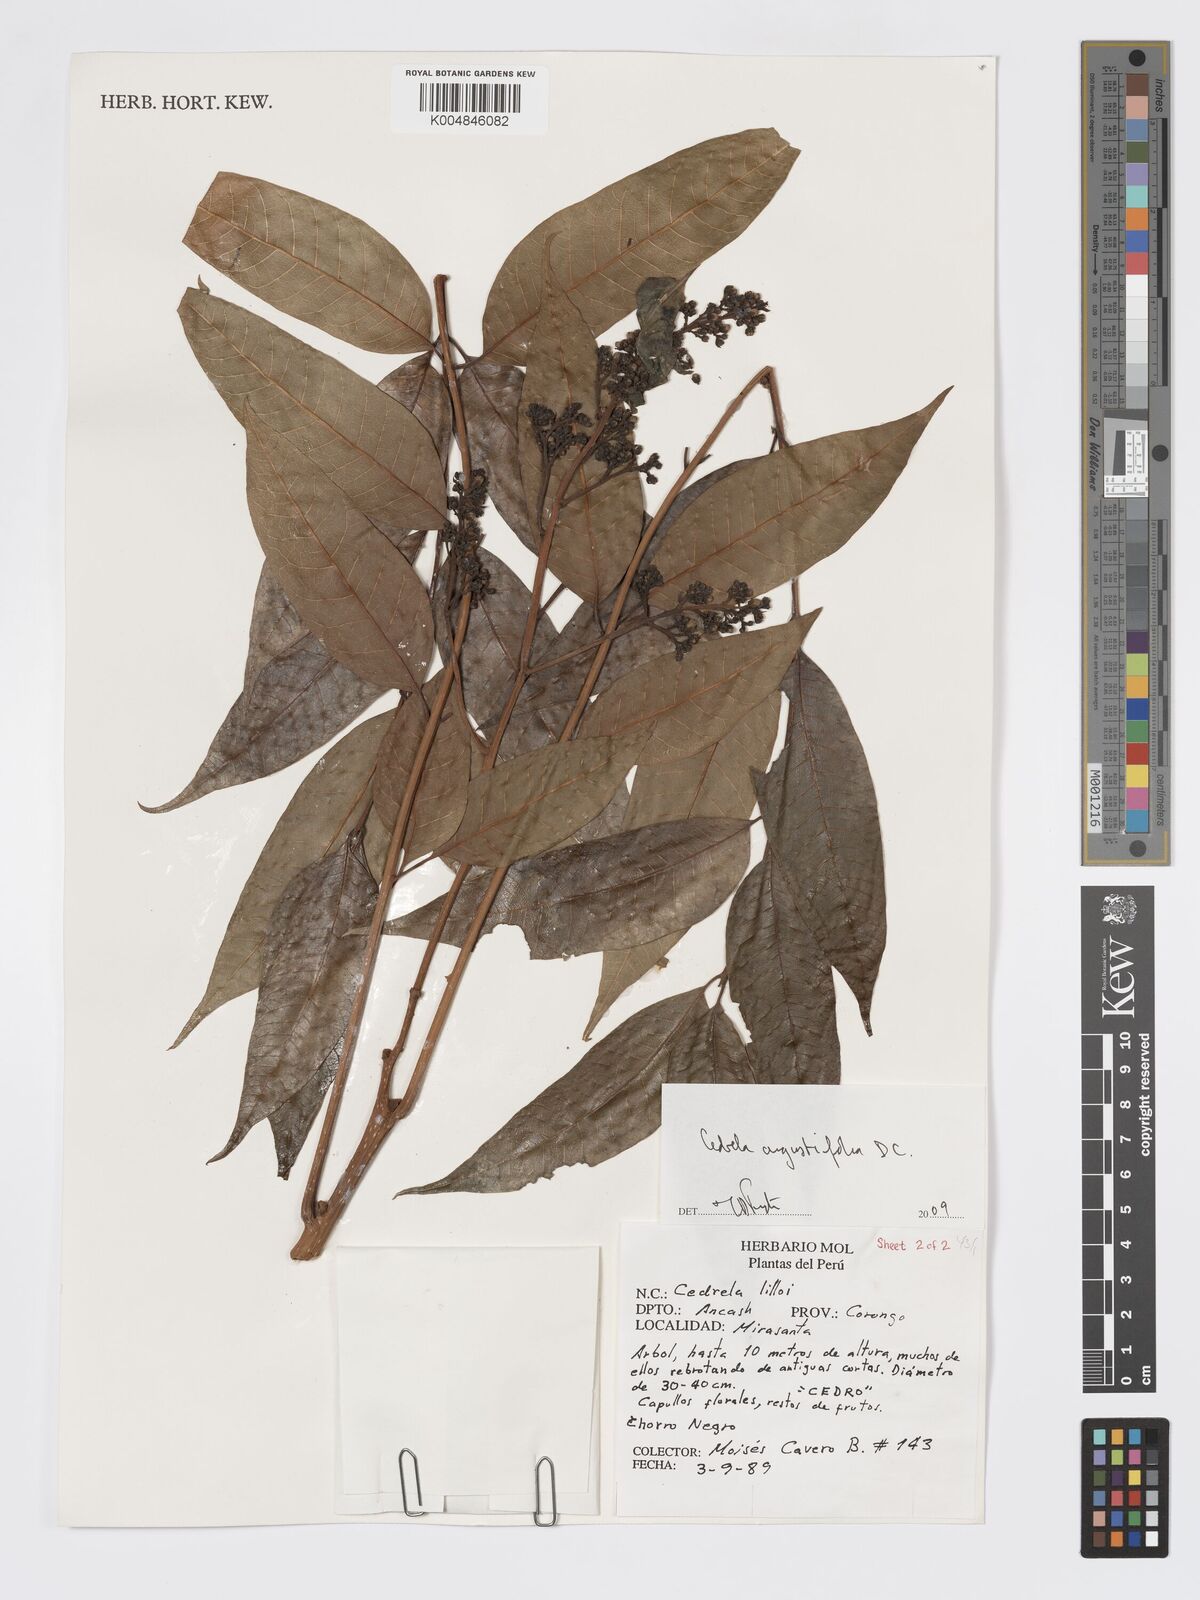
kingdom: Plantae
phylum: Tracheophyta
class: Magnoliopsida
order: Sapindales
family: Meliaceae
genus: Cedrela
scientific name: Cedrela odorata
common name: Red cedar
